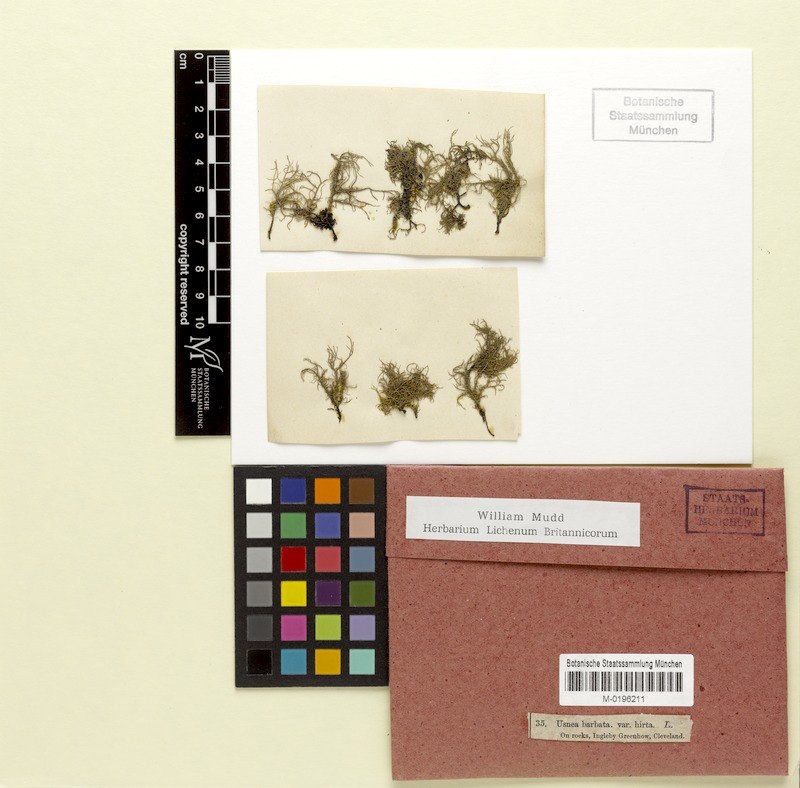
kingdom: Fungi
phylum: Ascomycota
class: Lecanoromycetes
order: Lecanorales
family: Parmeliaceae
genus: Usnea
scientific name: Usnea hirta
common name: Bristly beard lichen
